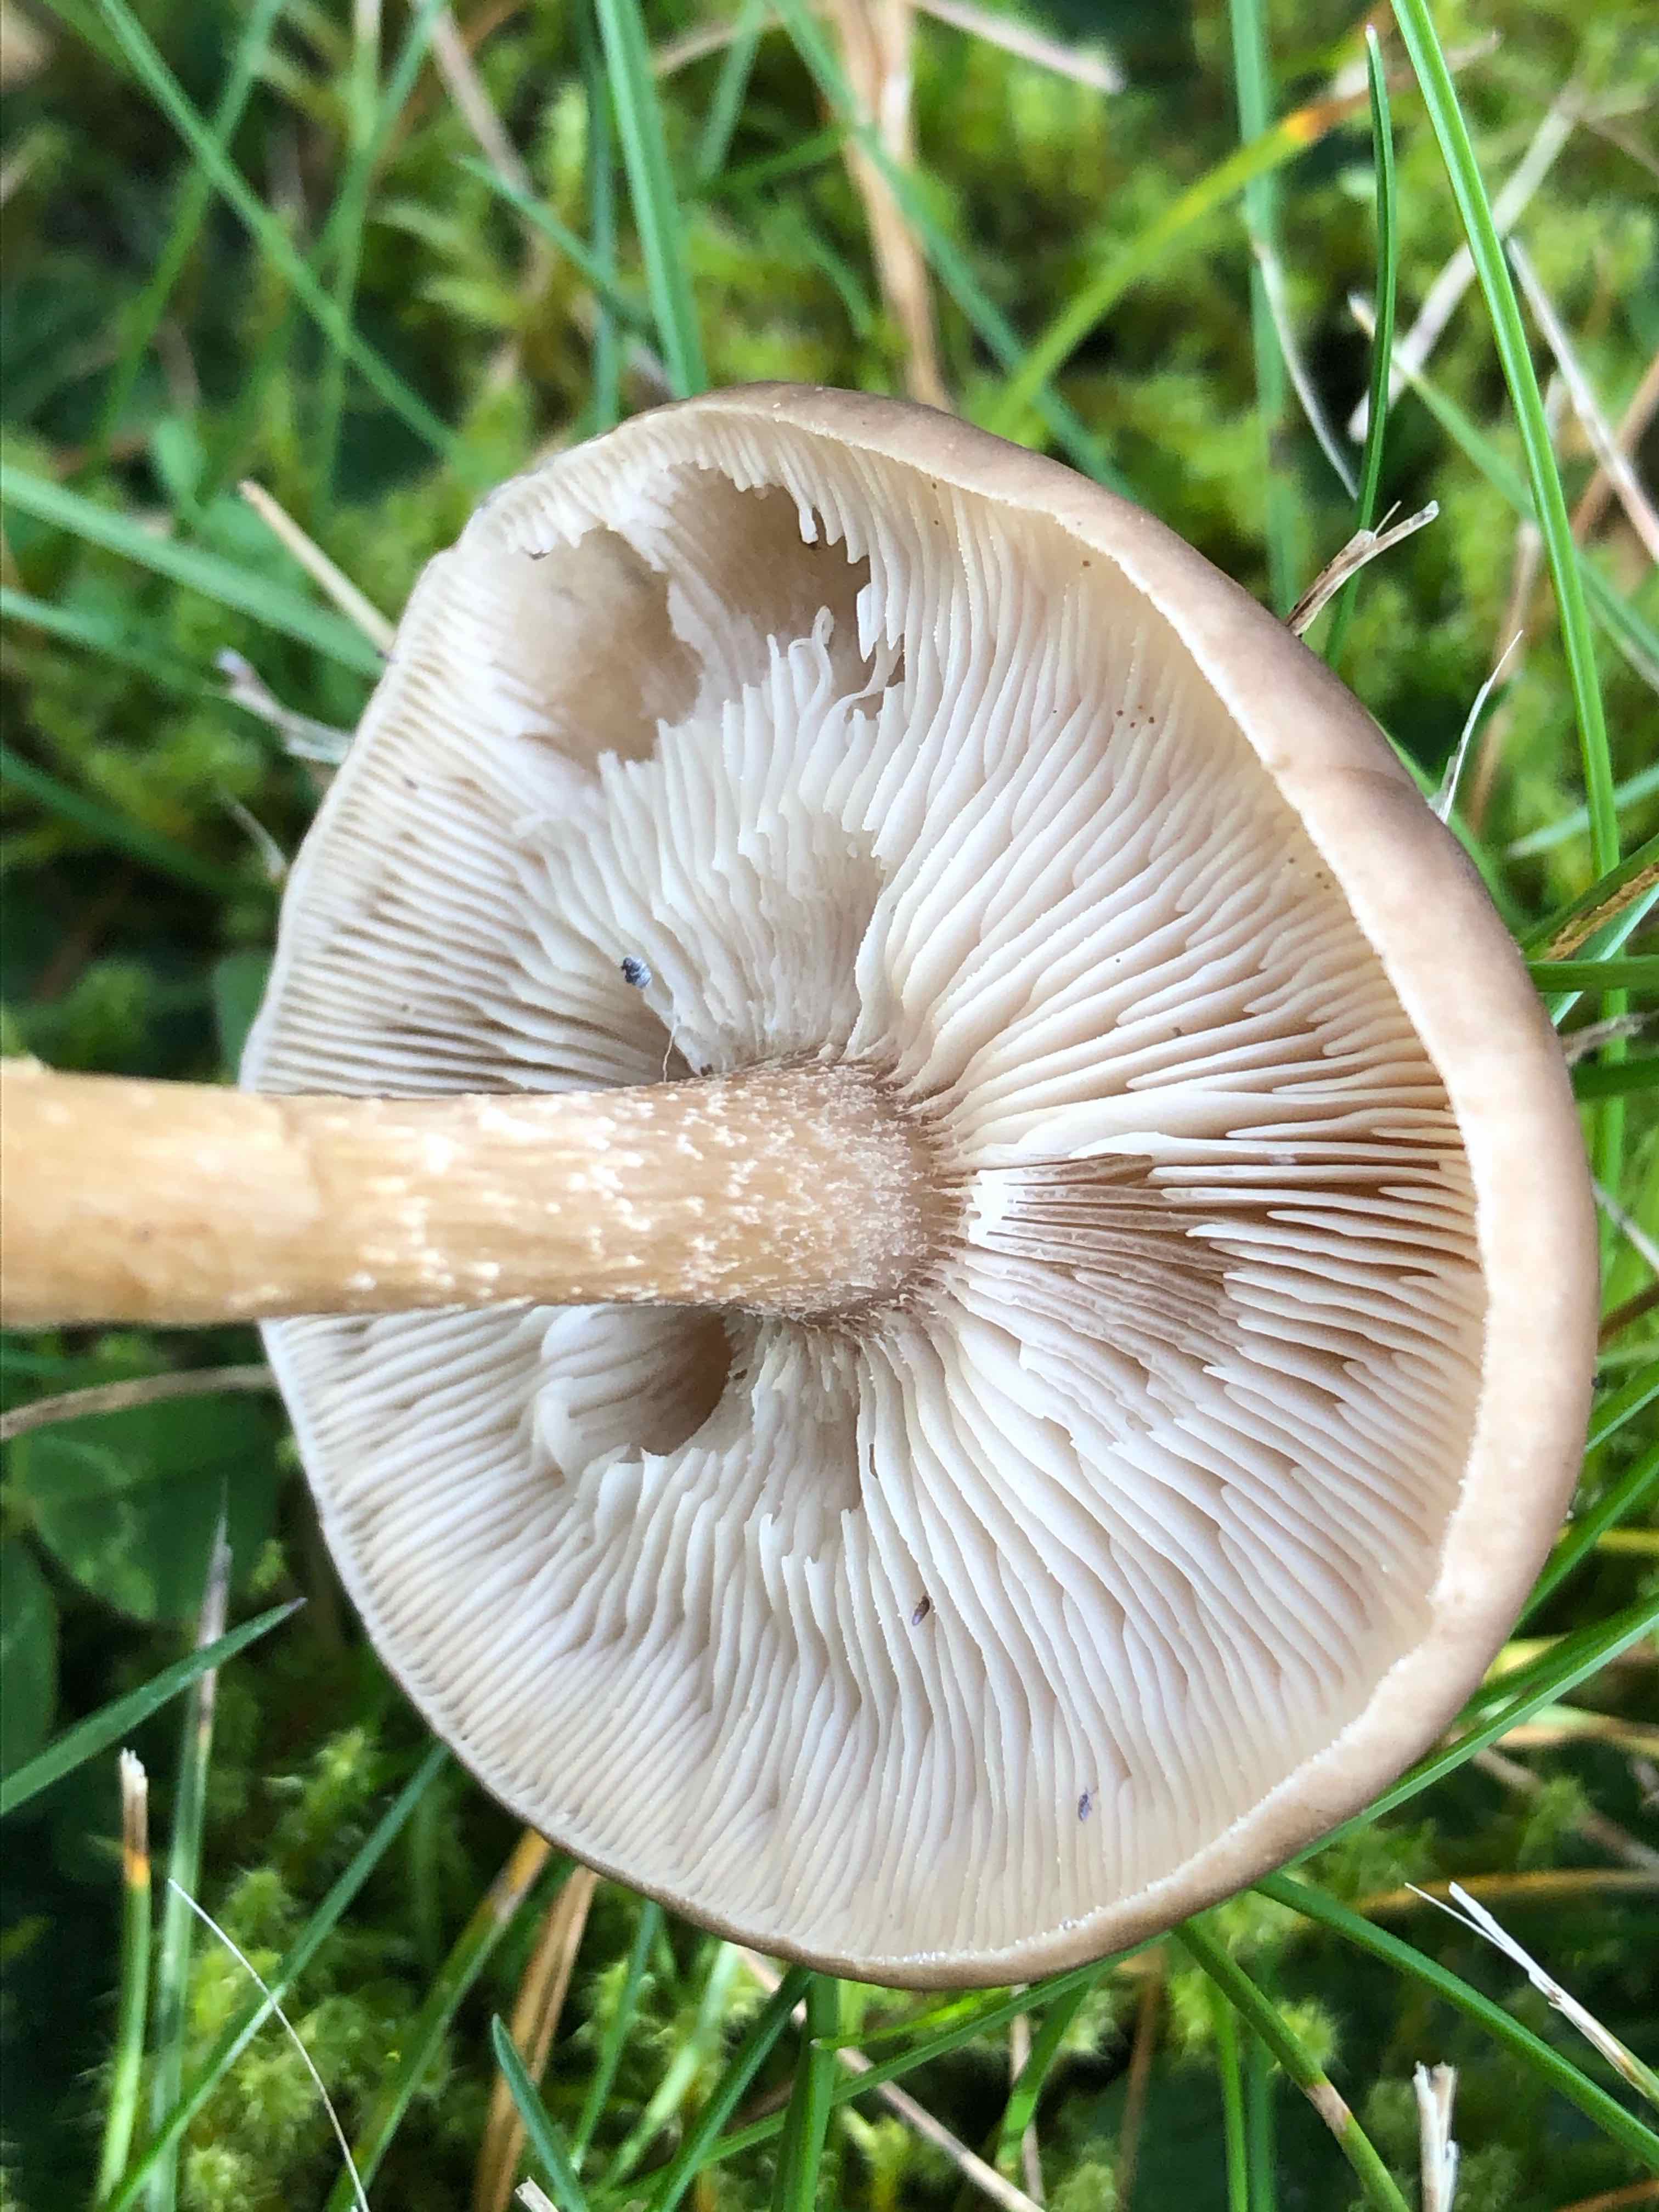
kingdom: Fungi
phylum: Basidiomycota
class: Agaricomycetes
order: Agaricales
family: Tricholomataceae
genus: Melanoleuca
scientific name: Melanoleuca
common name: munkehat
